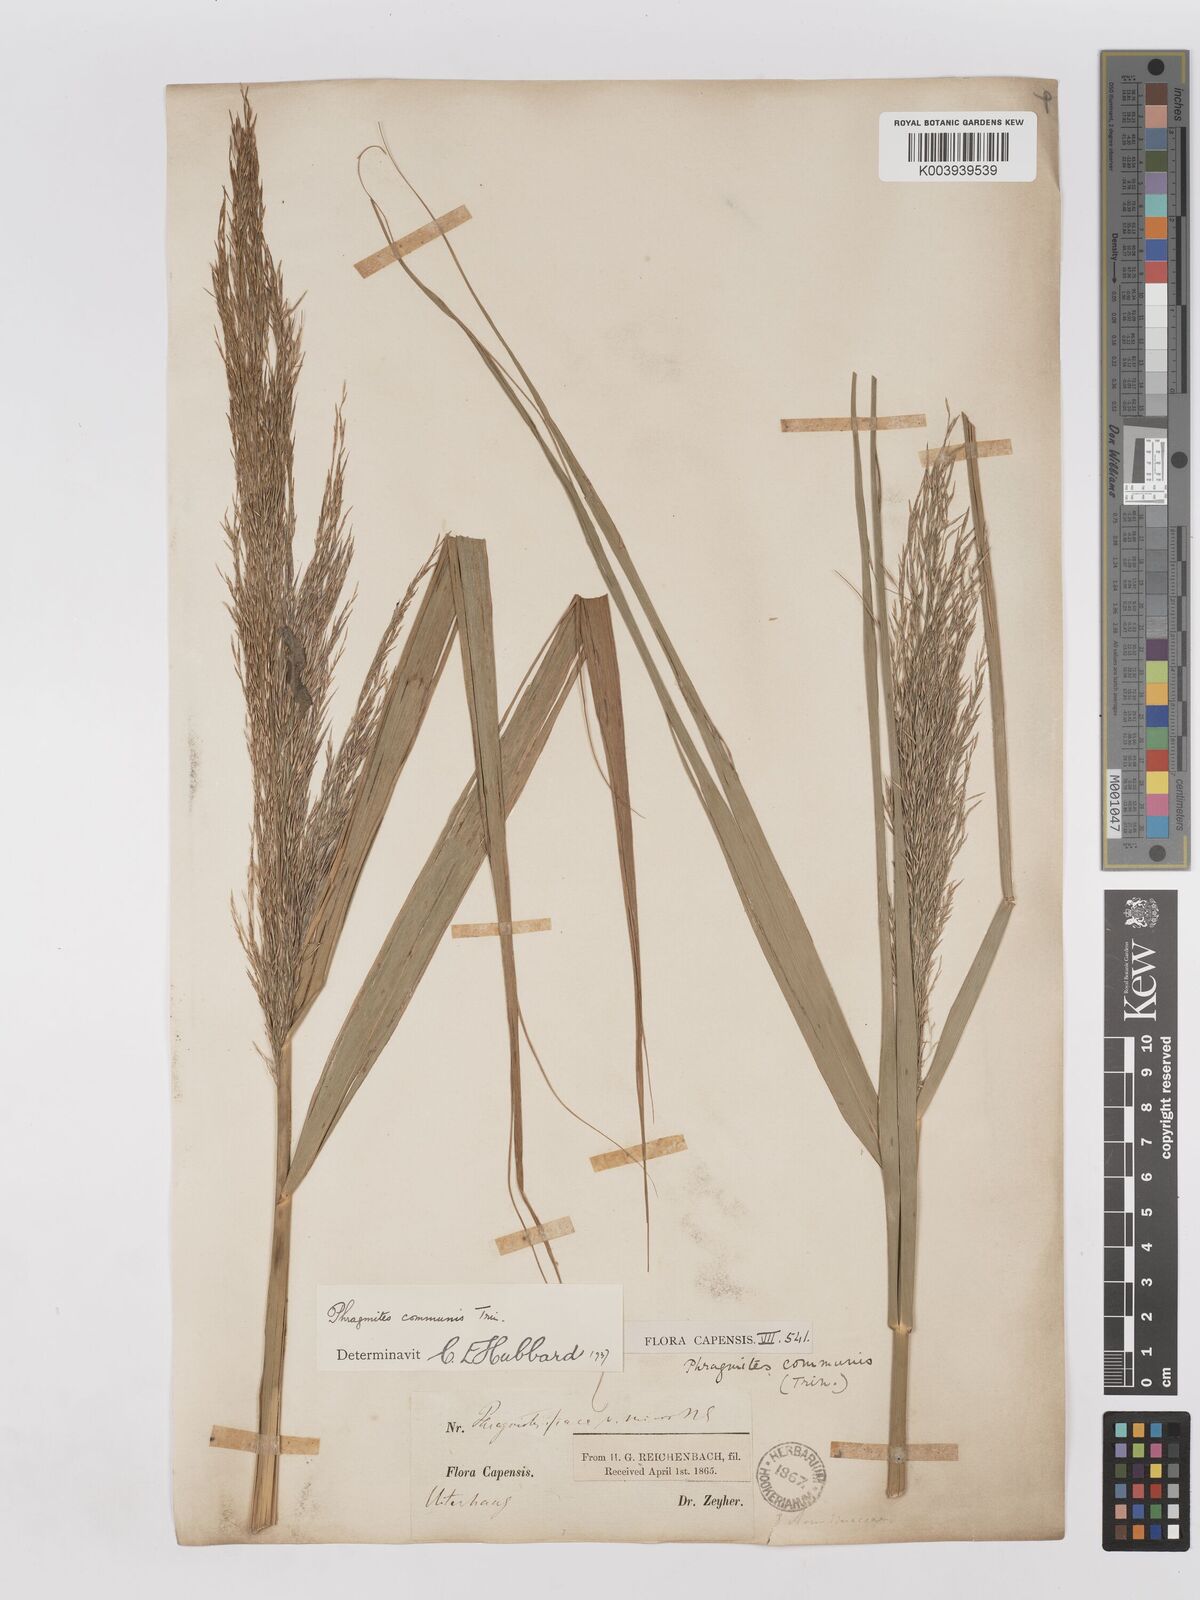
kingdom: Plantae
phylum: Tracheophyta
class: Liliopsida
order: Poales
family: Poaceae
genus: Phragmites
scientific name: Phragmites australis
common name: Common reed
